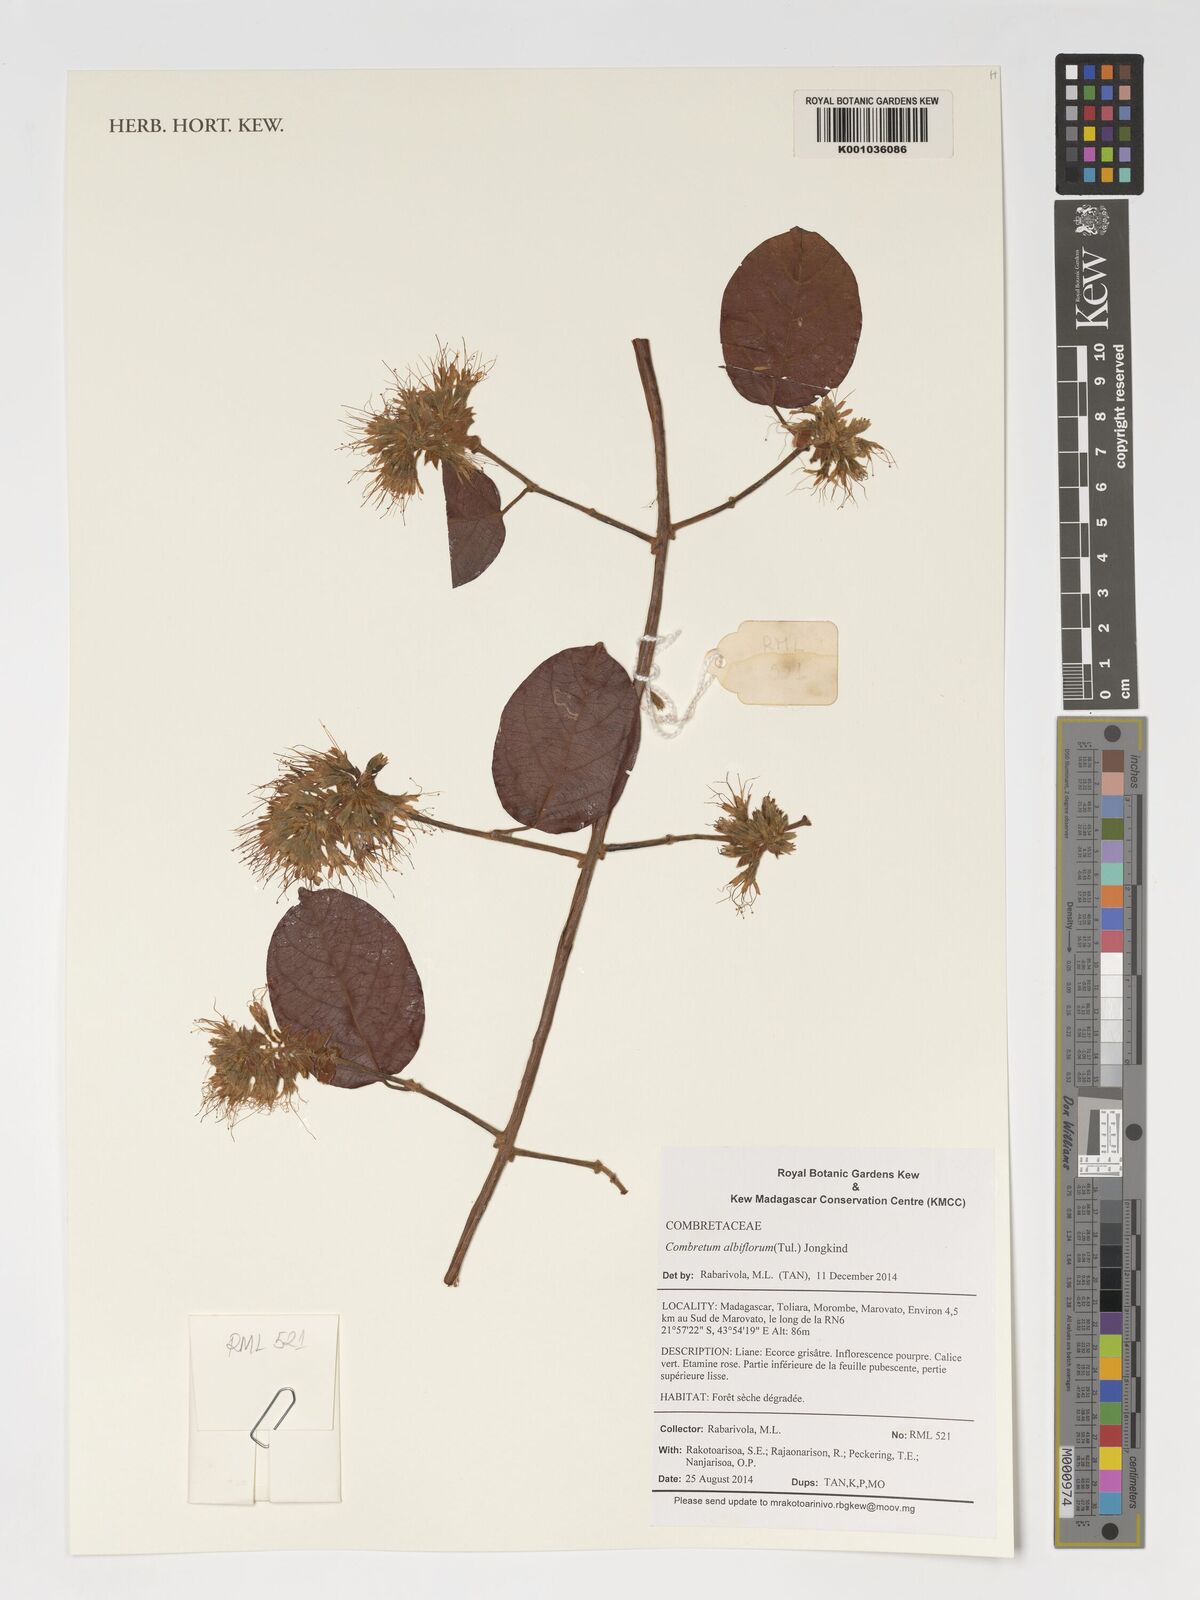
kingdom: Plantae
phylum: Tracheophyta
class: Magnoliopsida
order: Myrtales
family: Combretaceae
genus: Combretum
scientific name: Combretum albiflorum
